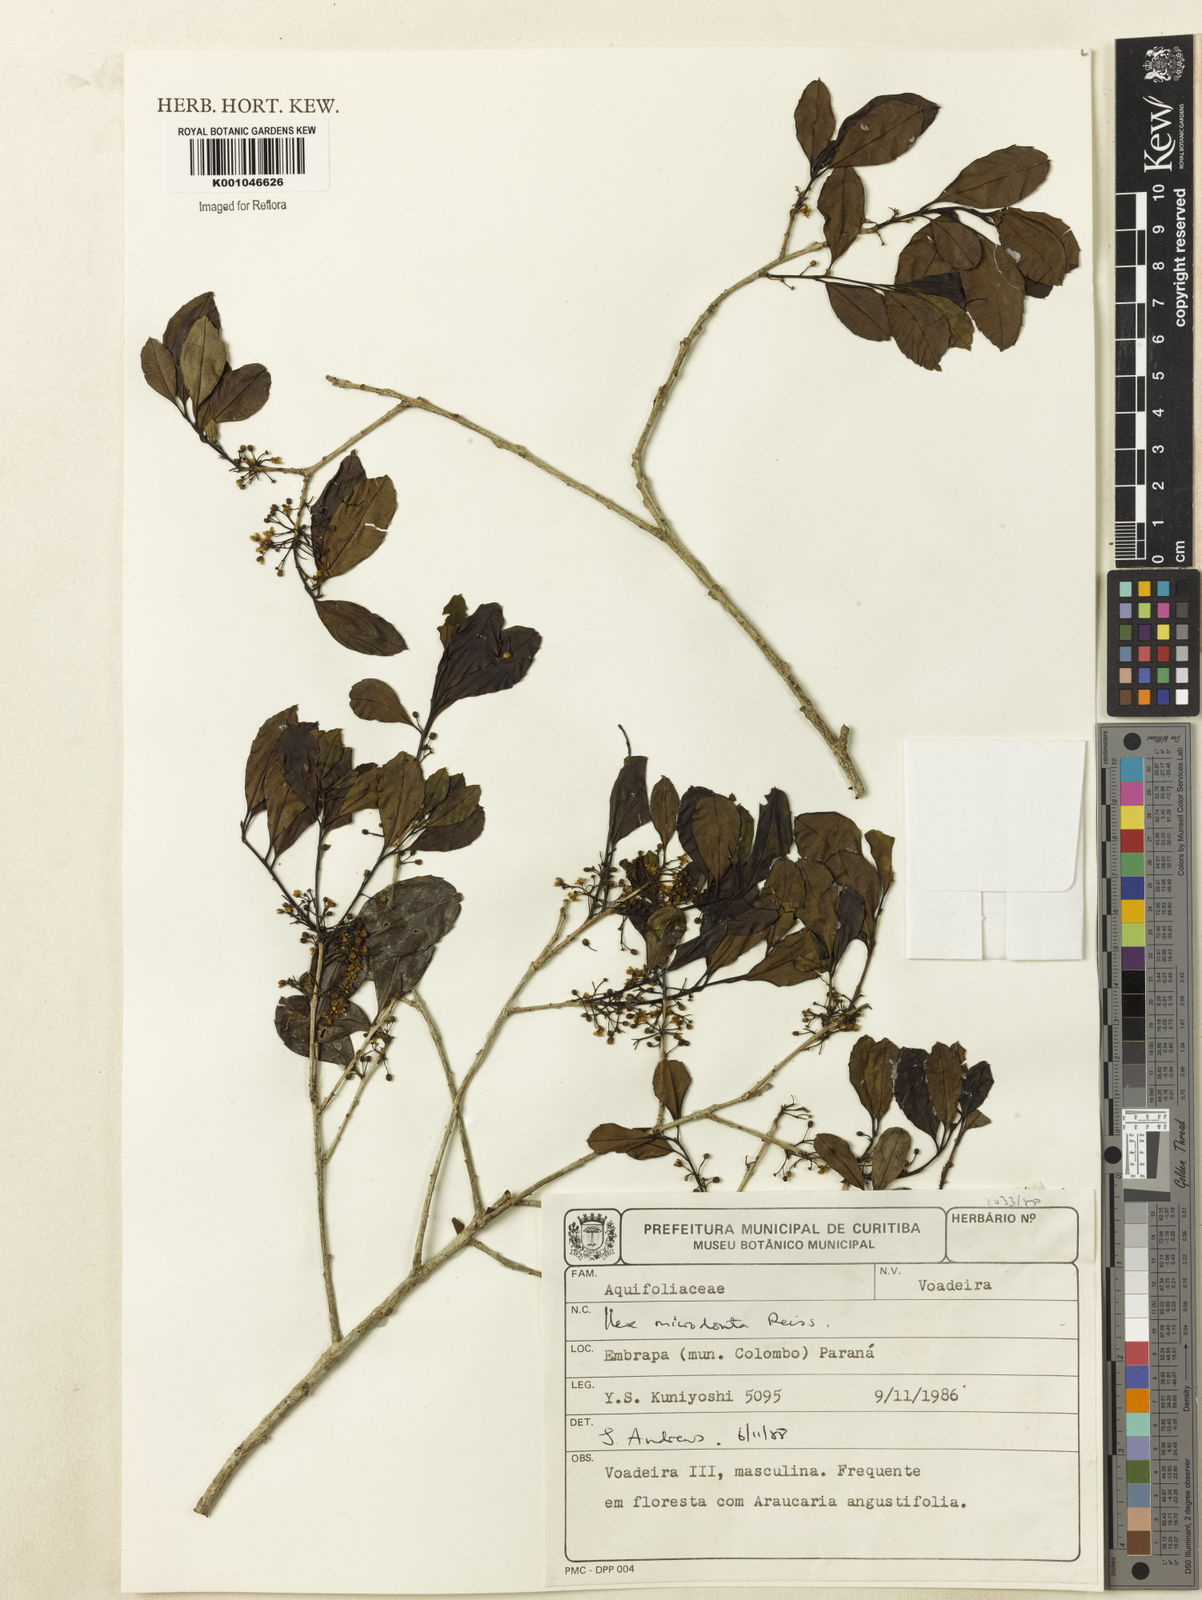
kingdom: Plantae
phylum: Tracheophyta
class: Magnoliopsida
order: Aquifoliales
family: Aquifoliaceae
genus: Ilex
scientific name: Ilex microdonta
